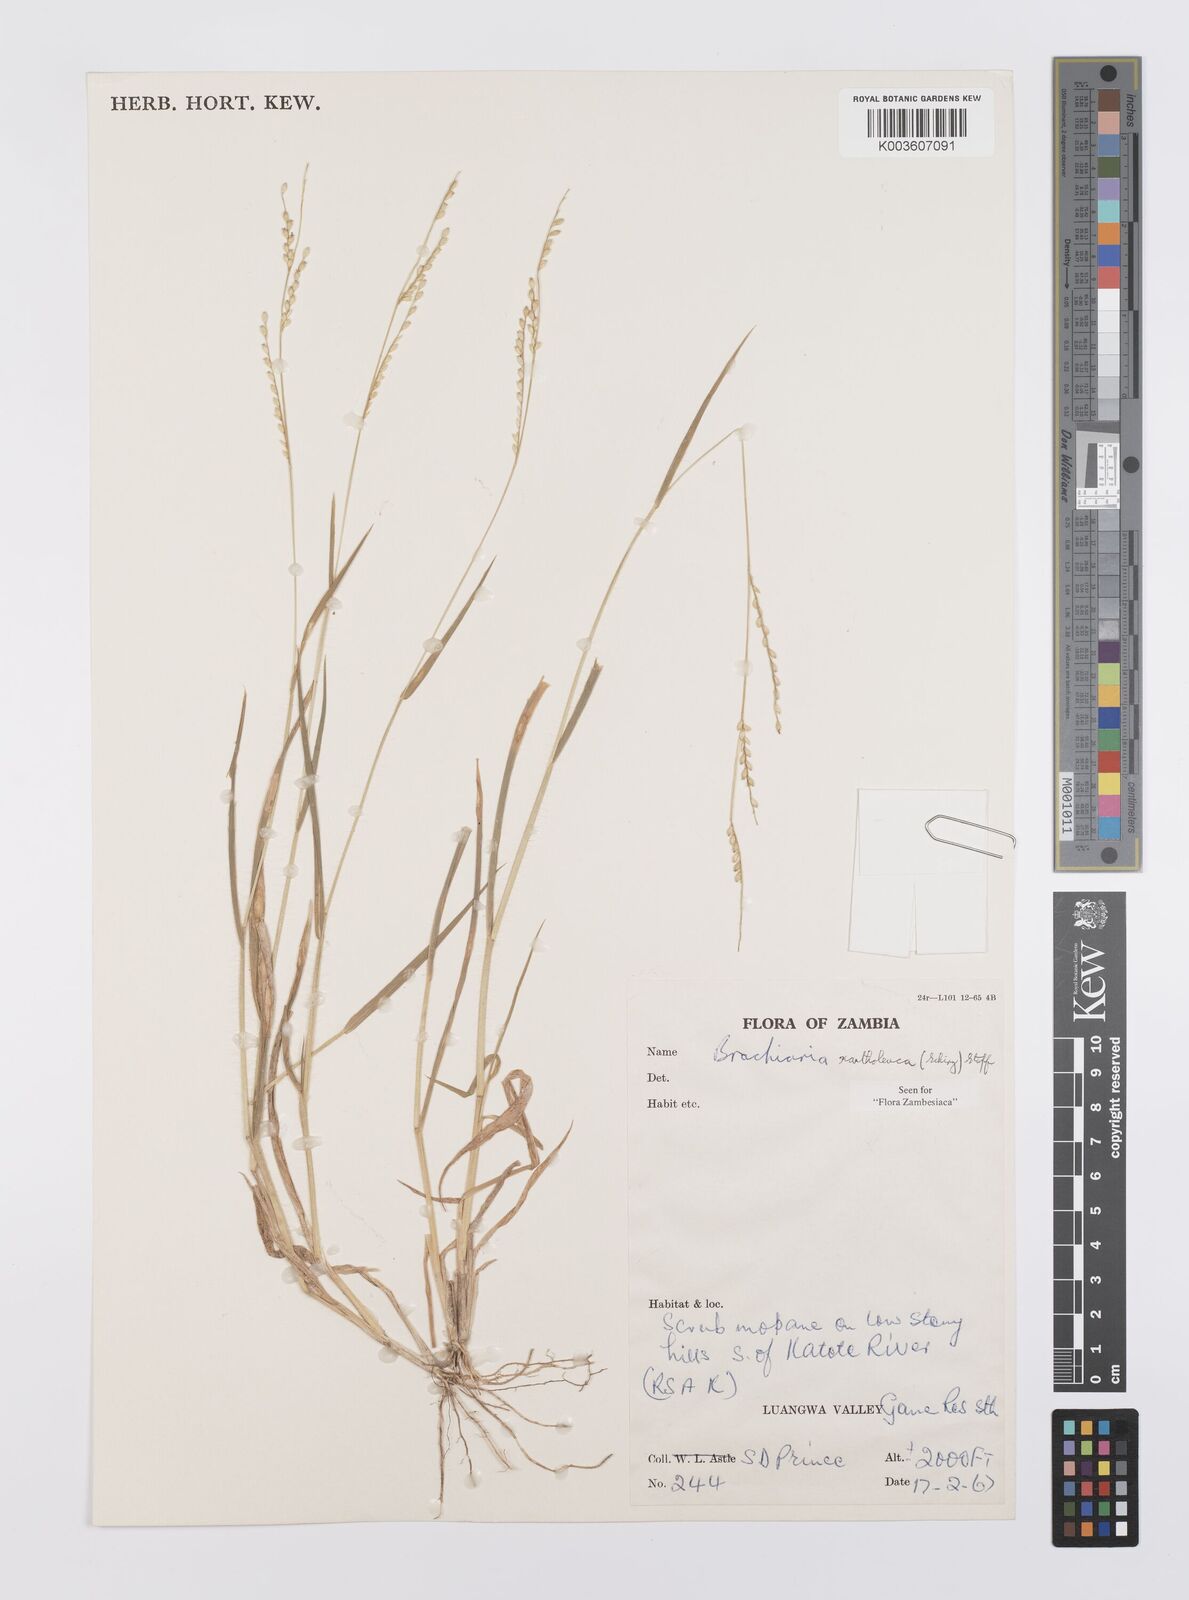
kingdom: Plantae
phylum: Tracheophyta
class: Liliopsida
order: Poales
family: Poaceae
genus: Urochloa
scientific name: Urochloa xantholeuca
